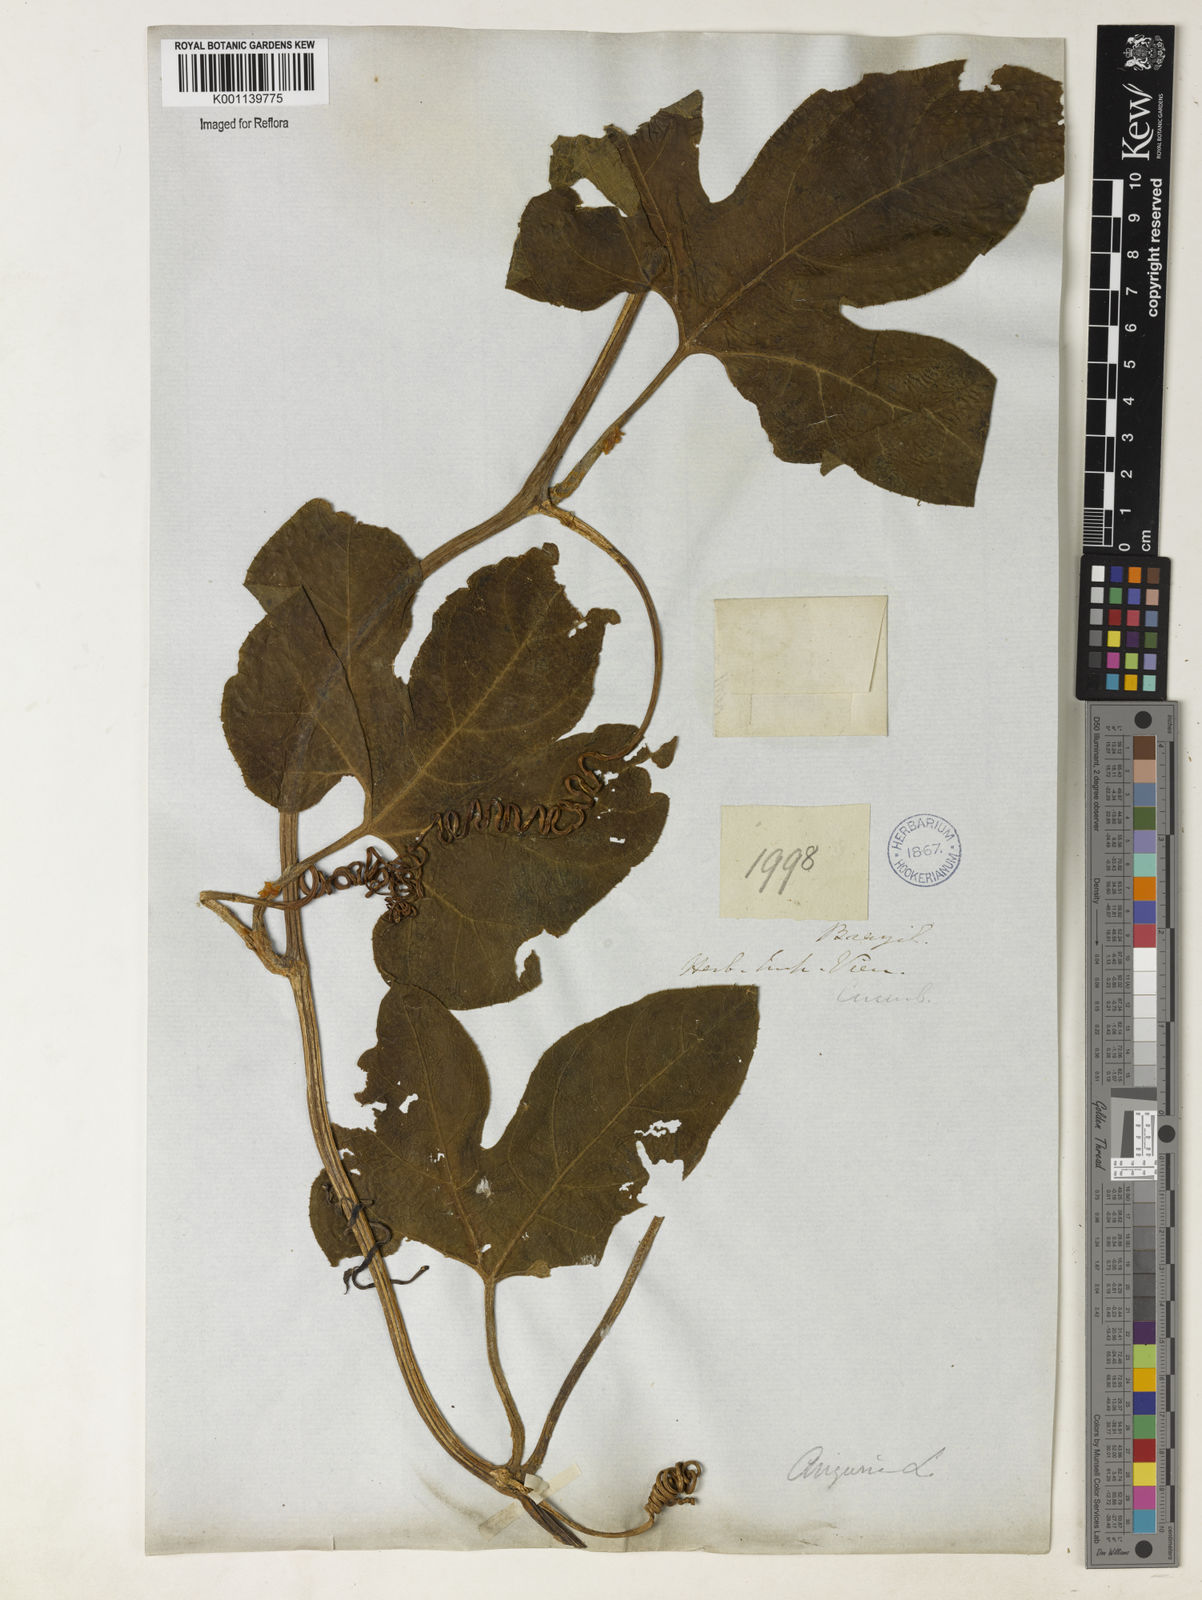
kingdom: Plantae
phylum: Tracheophyta
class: Magnoliopsida
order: Cucurbitales
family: Cucurbitaceae
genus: Gurania
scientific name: Gurania subumbellata
